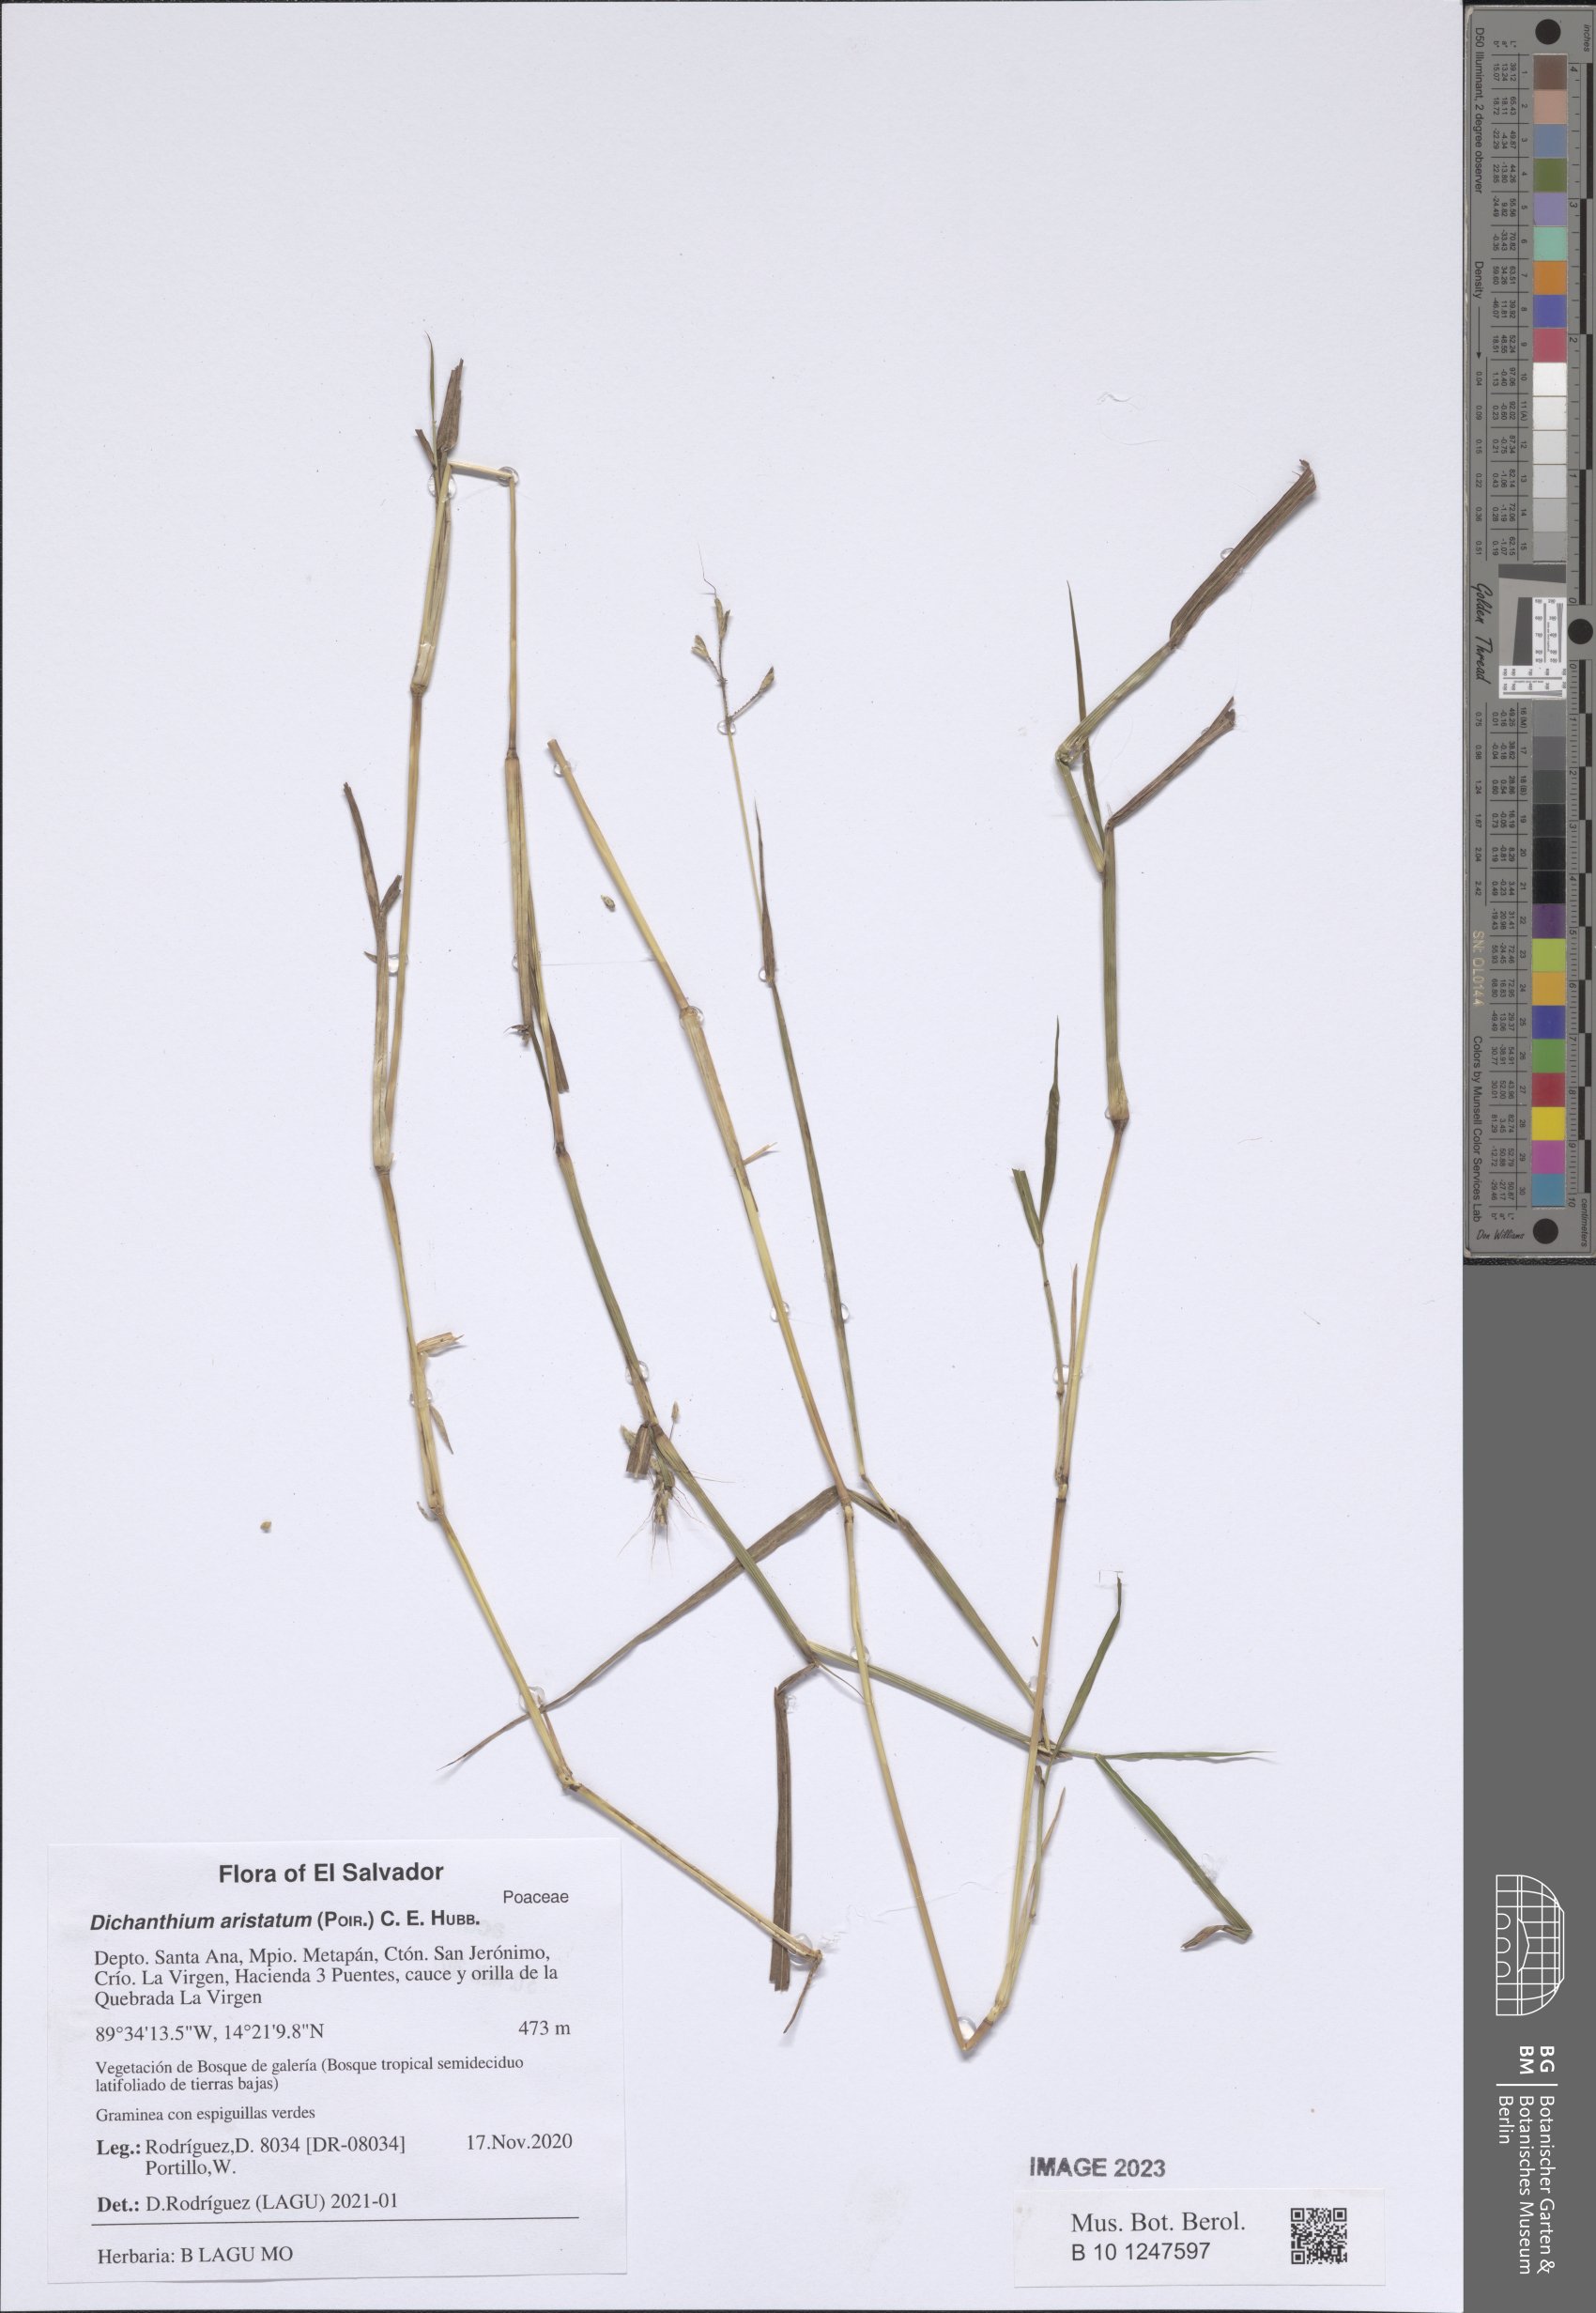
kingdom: Plantae
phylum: Tracheophyta
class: Liliopsida
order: Poales
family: Poaceae
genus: Dichanthium
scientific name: Dichanthium aristatum
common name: Angleton bluestem
